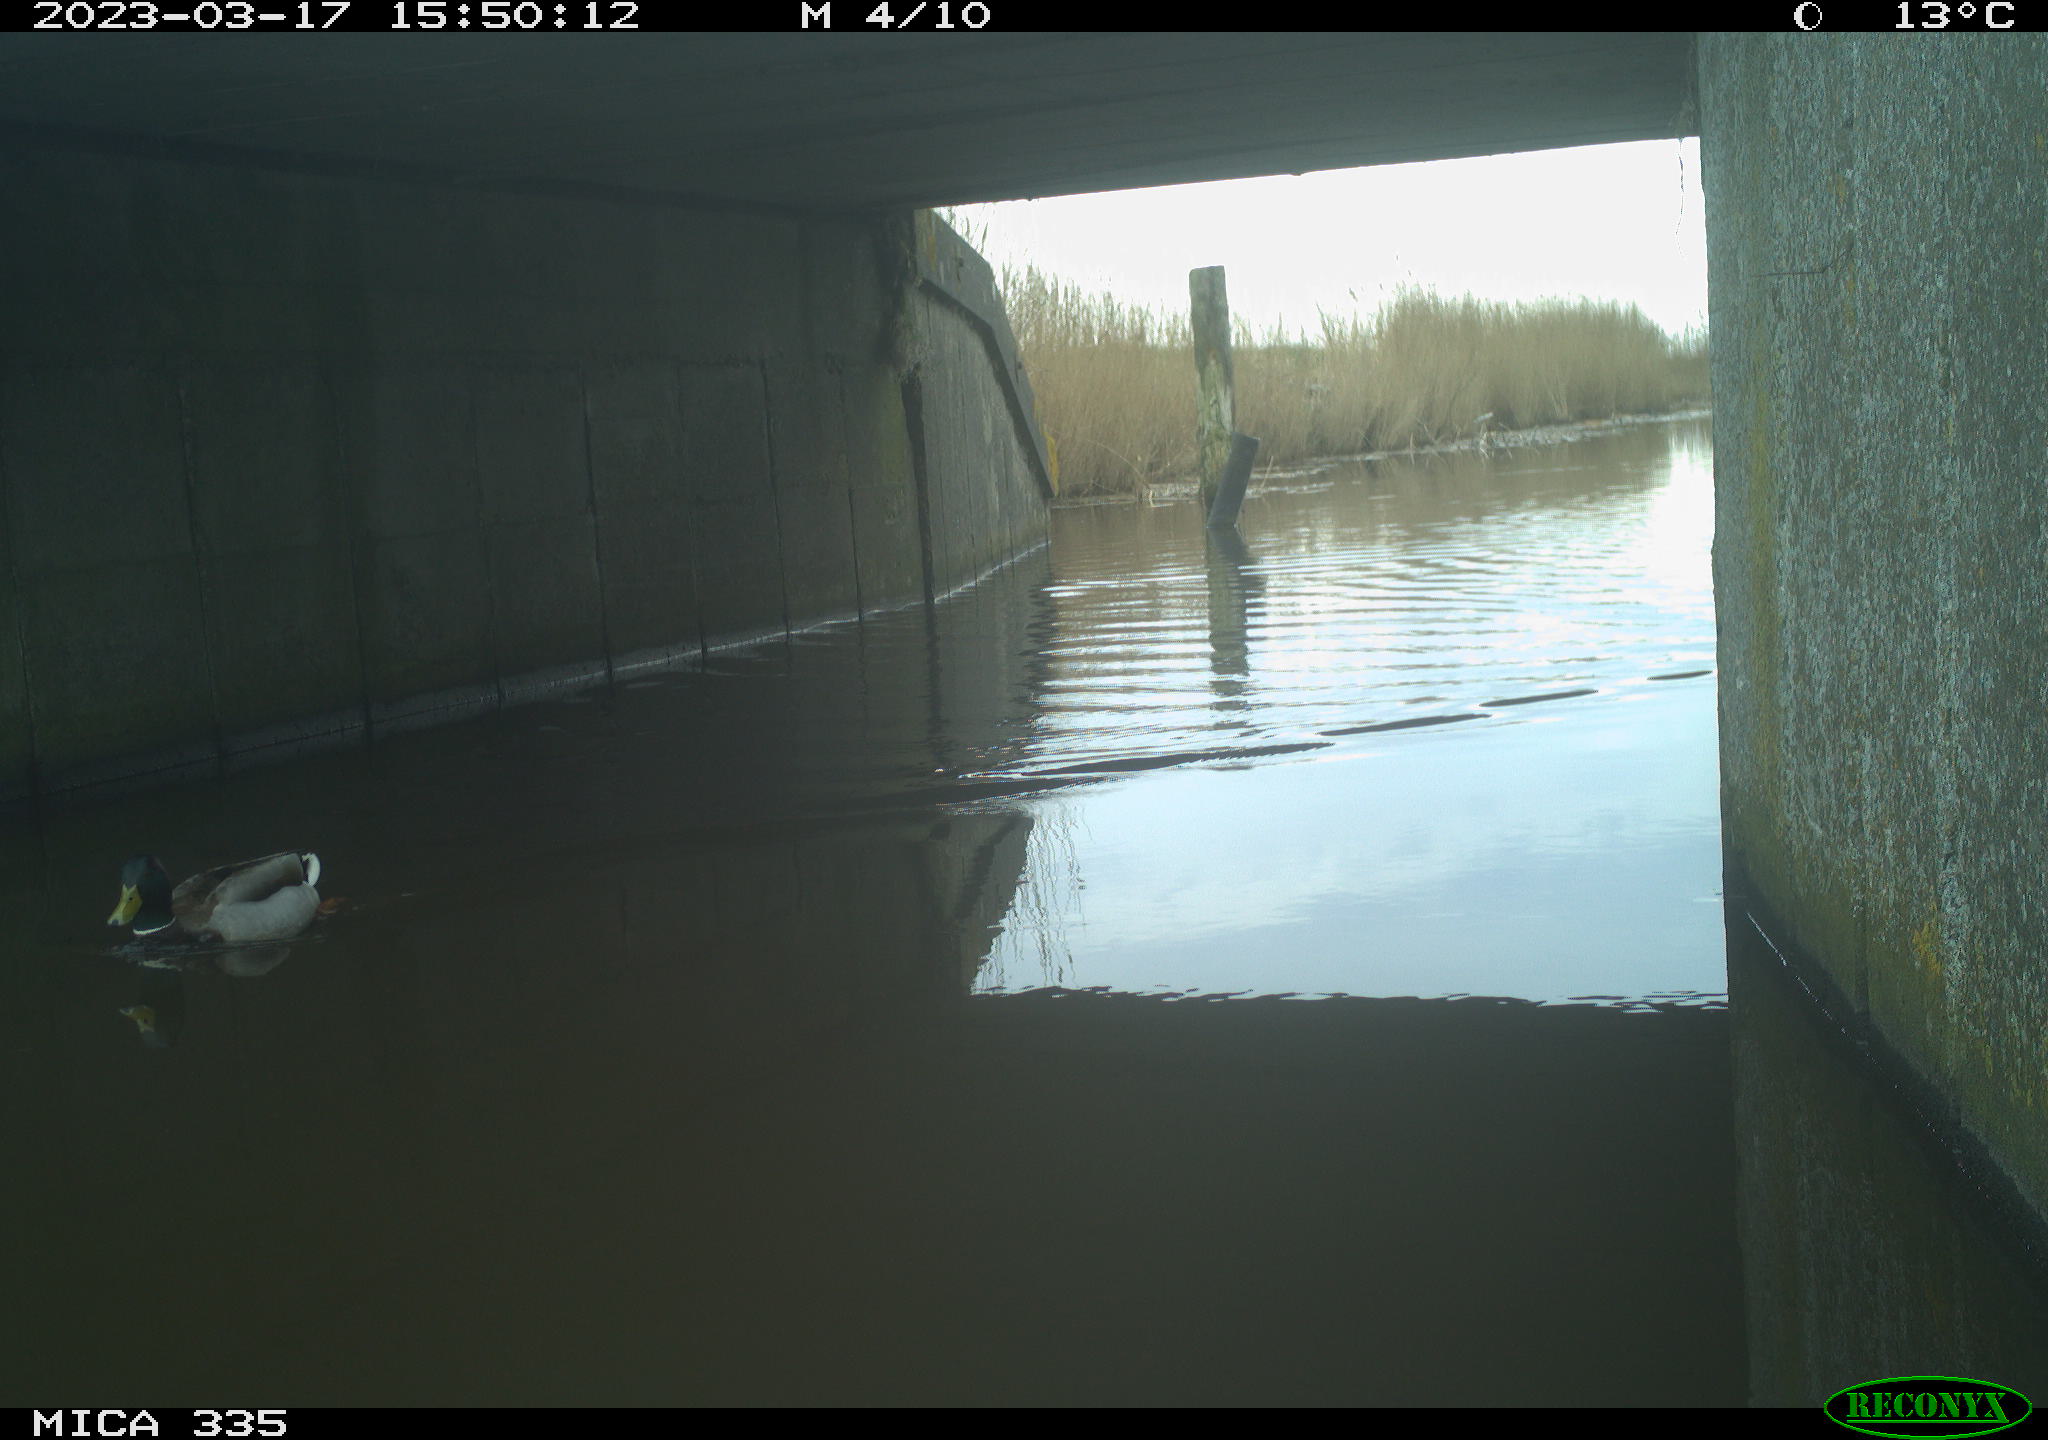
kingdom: Animalia
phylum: Chordata
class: Aves
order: Anseriformes
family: Anatidae
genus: Anas
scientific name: Anas
